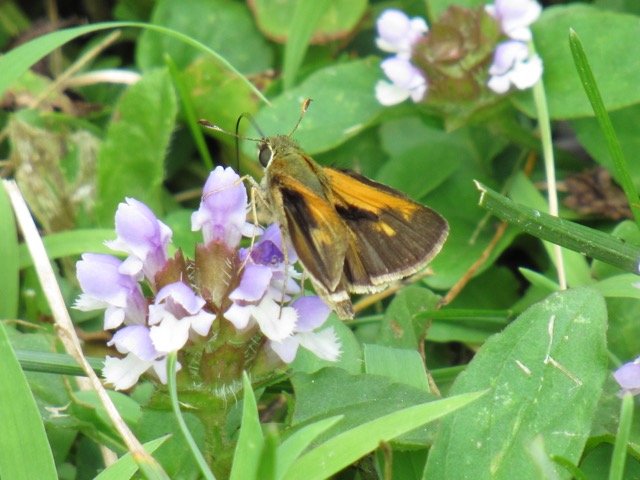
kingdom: Animalia
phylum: Arthropoda
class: Insecta
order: Lepidoptera
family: Hesperiidae
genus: Polites
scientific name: Polites themistocles
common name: Tawny-edged Skipper
